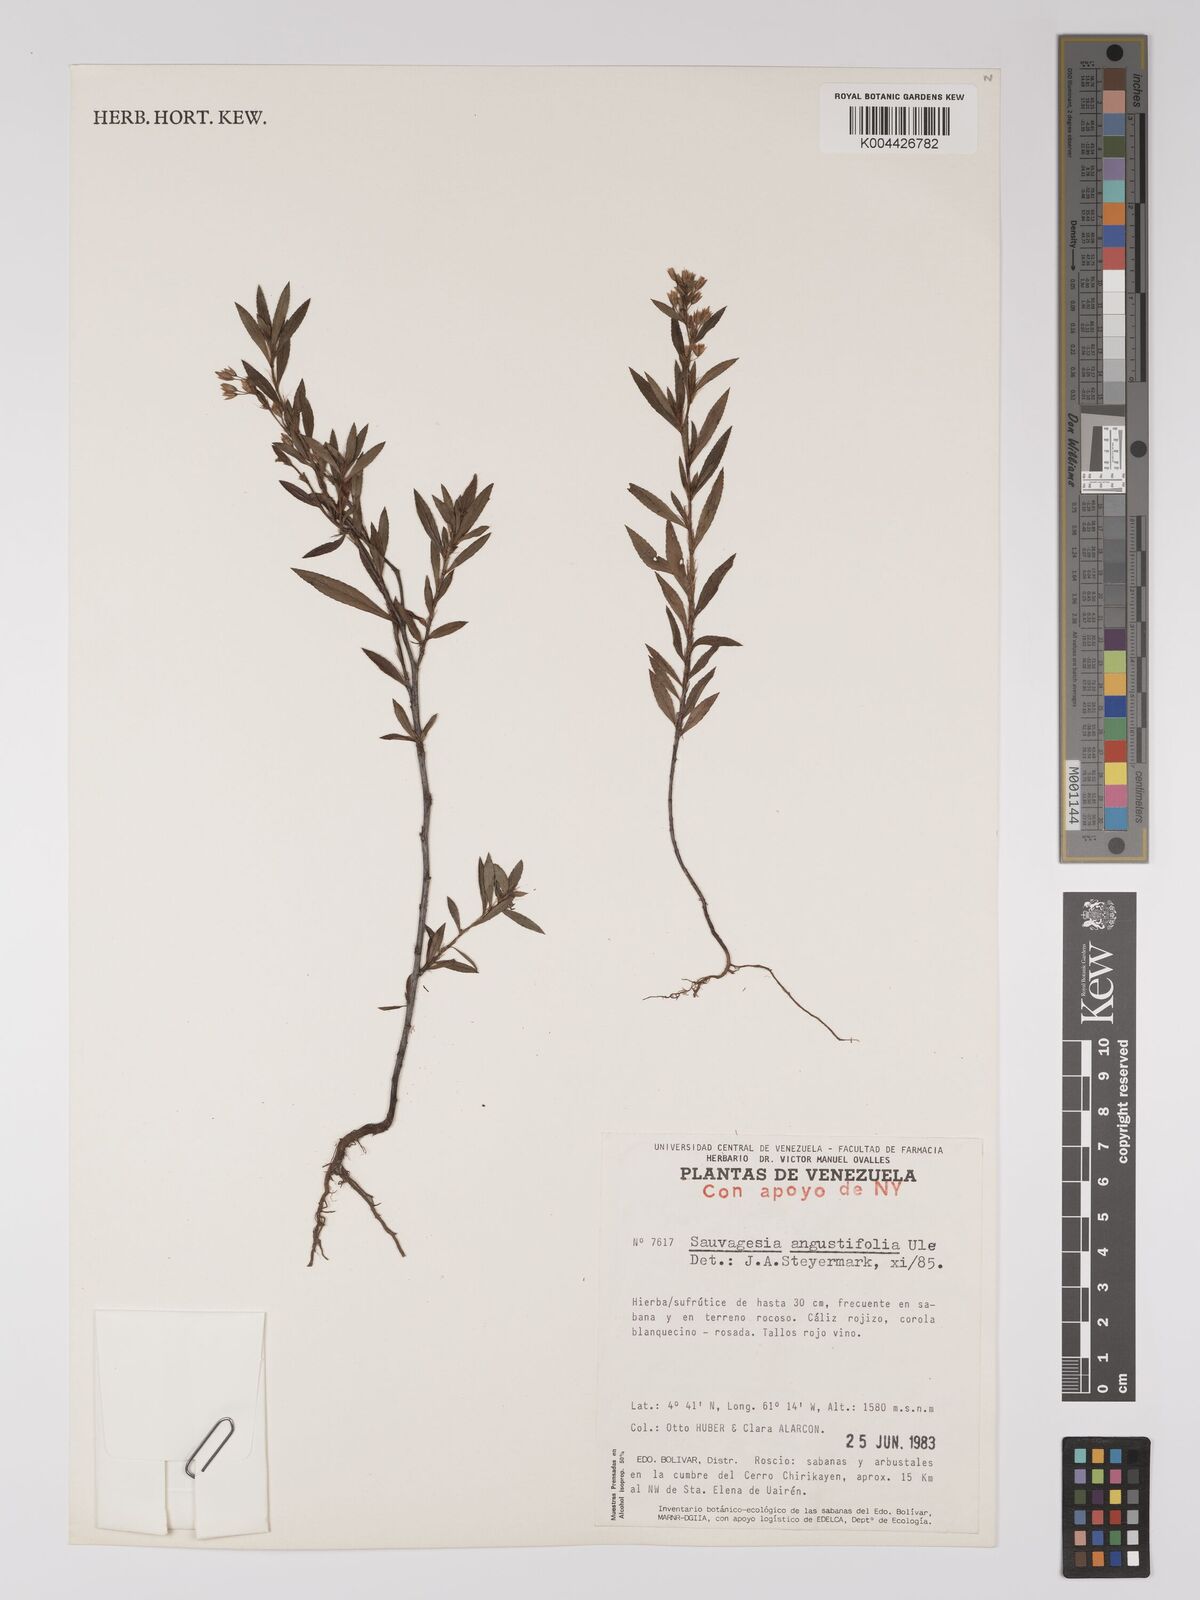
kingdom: Plantae
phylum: Tracheophyta
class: Magnoliopsida
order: Malpighiales
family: Ochnaceae
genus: Sauvagesia
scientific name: Sauvagesia angustifolia
